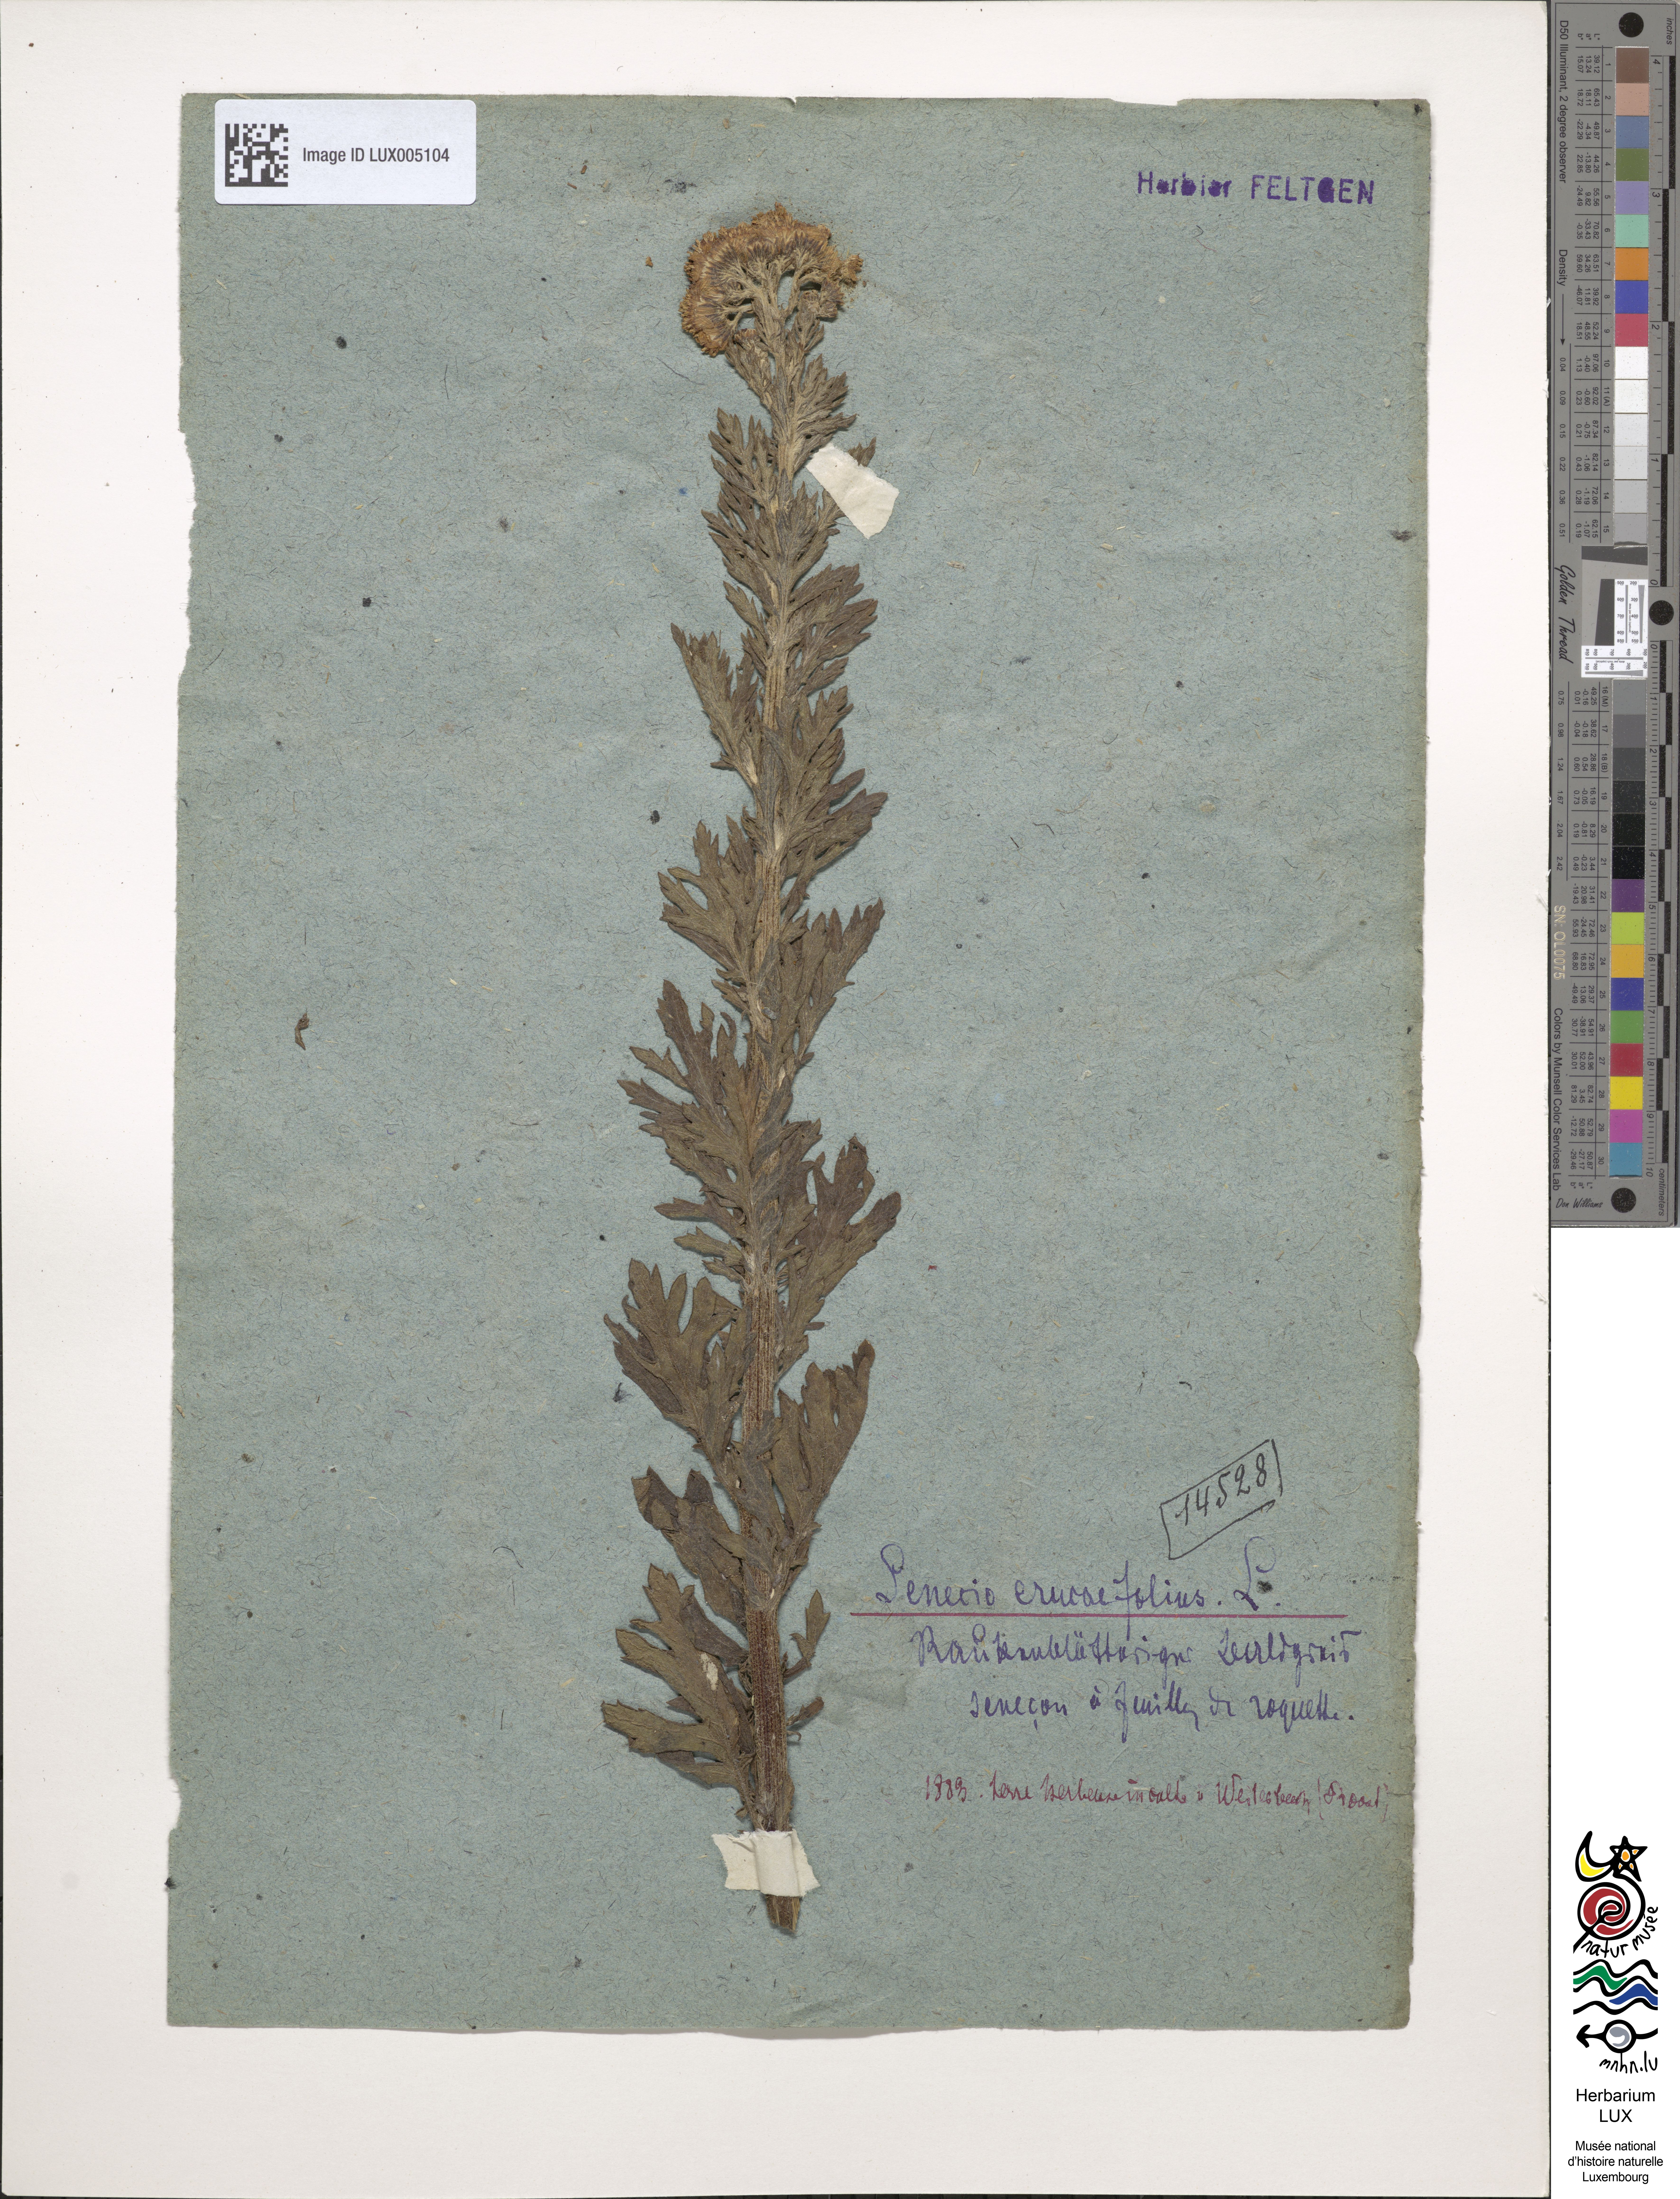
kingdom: Plantae
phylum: Tracheophyta
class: Magnoliopsida
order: Asterales
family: Asteraceae
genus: Jacobaea
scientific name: Jacobaea erucifolia
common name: Hoary ragwort
